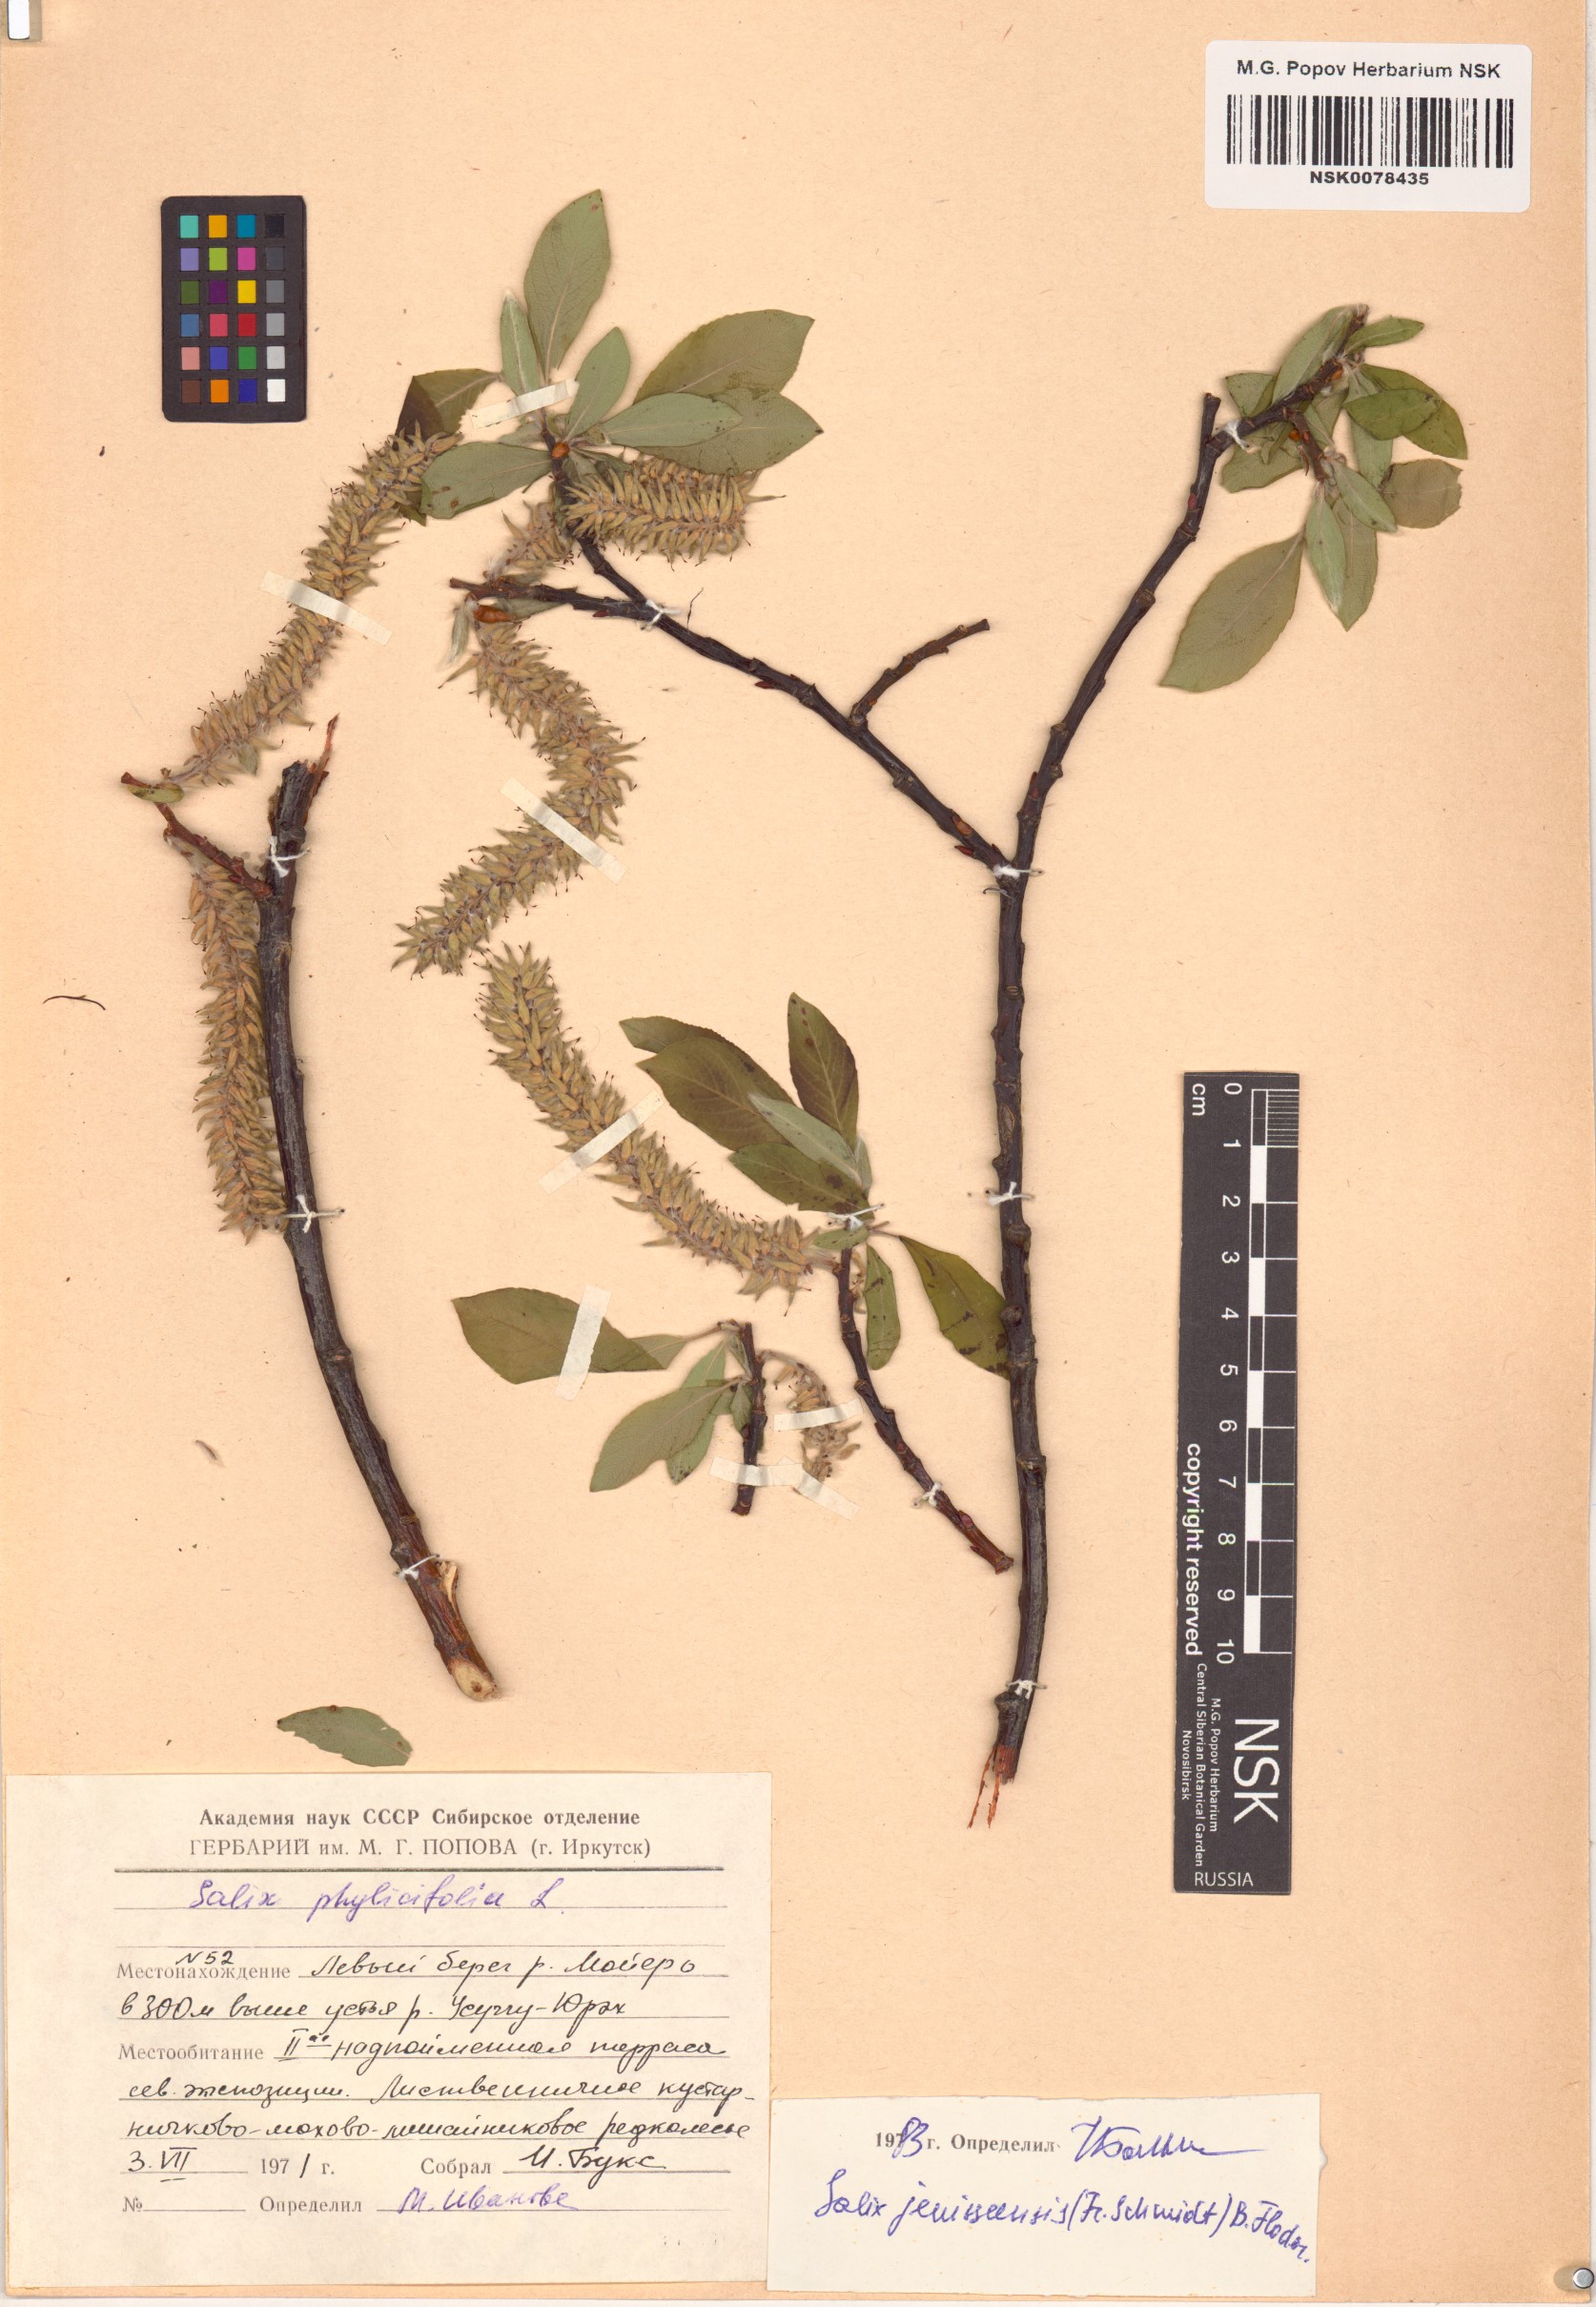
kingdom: Plantae
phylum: Tracheophyta
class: Magnoliopsida
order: Malpighiales
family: Salicaceae
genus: Salix
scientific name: Salix jenisseensis
